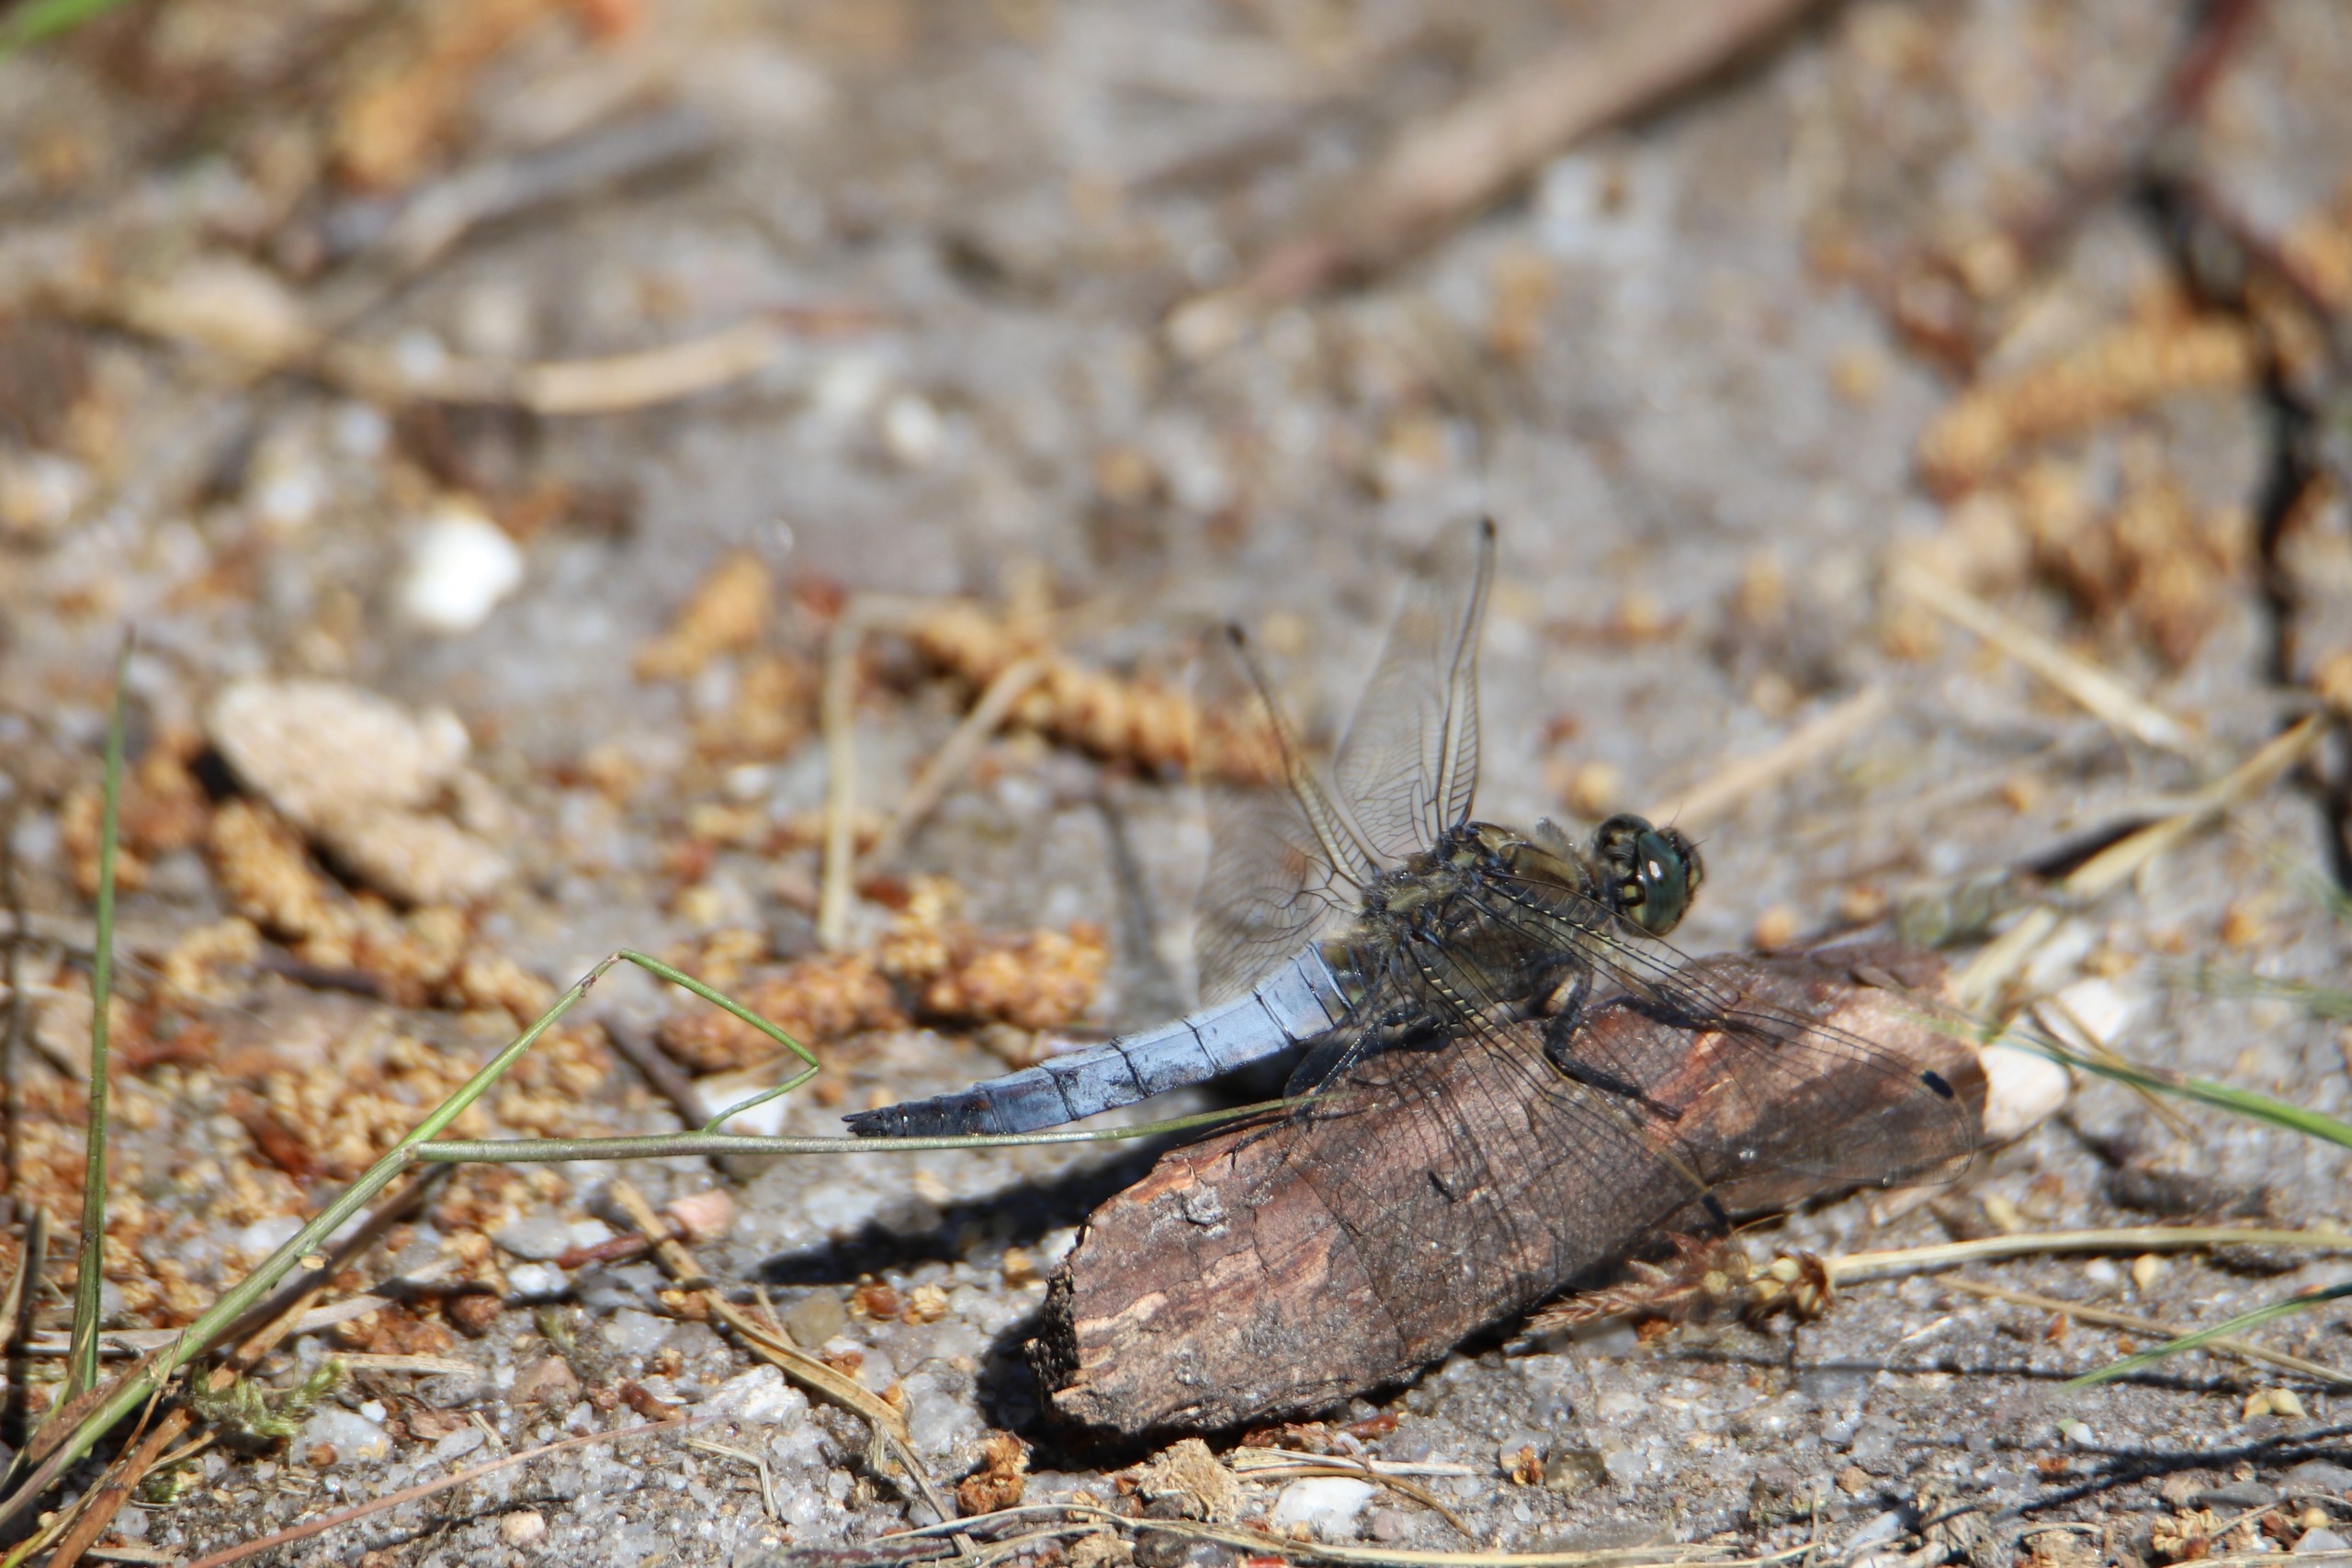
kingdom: Animalia
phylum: Arthropoda
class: Insecta
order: Odonata
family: Libellulidae
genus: Orthetrum
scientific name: Orthetrum cancellatum
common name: Stor blåpil
